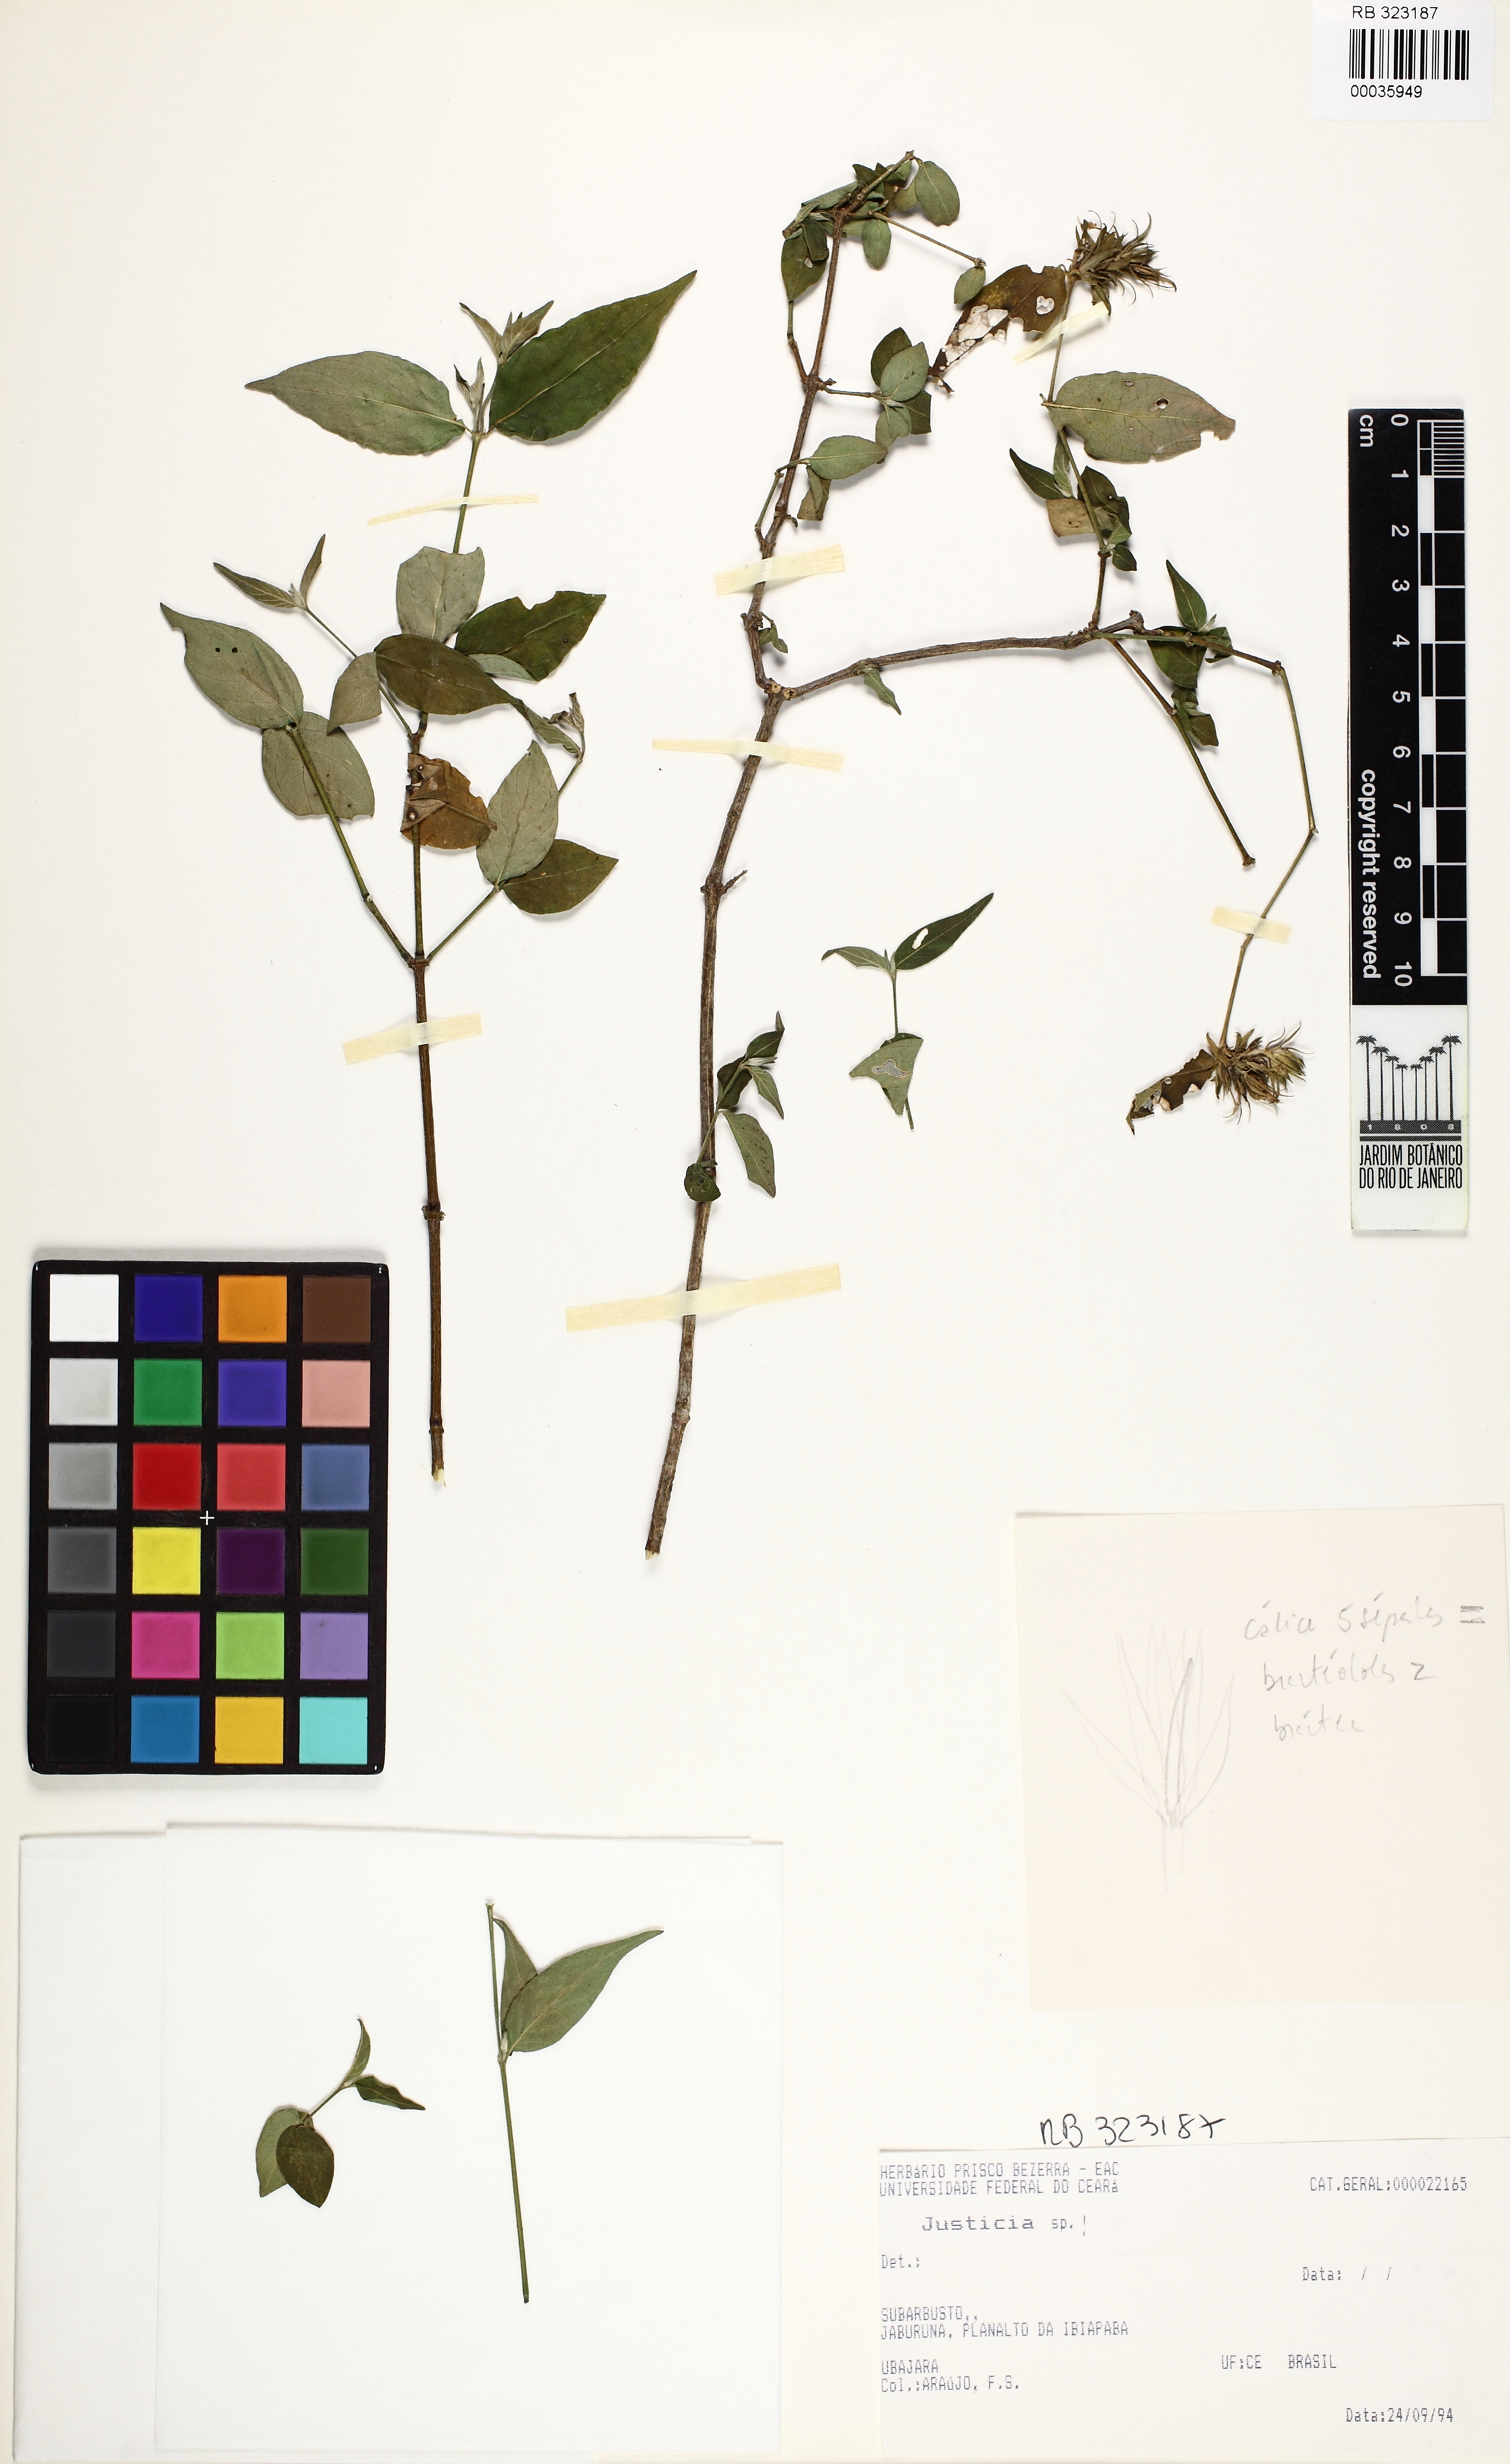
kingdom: Plantae
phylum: Tracheophyta
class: Magnoliopsida
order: Lamiales
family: Acanthaceae
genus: Justicia
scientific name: Justicia
